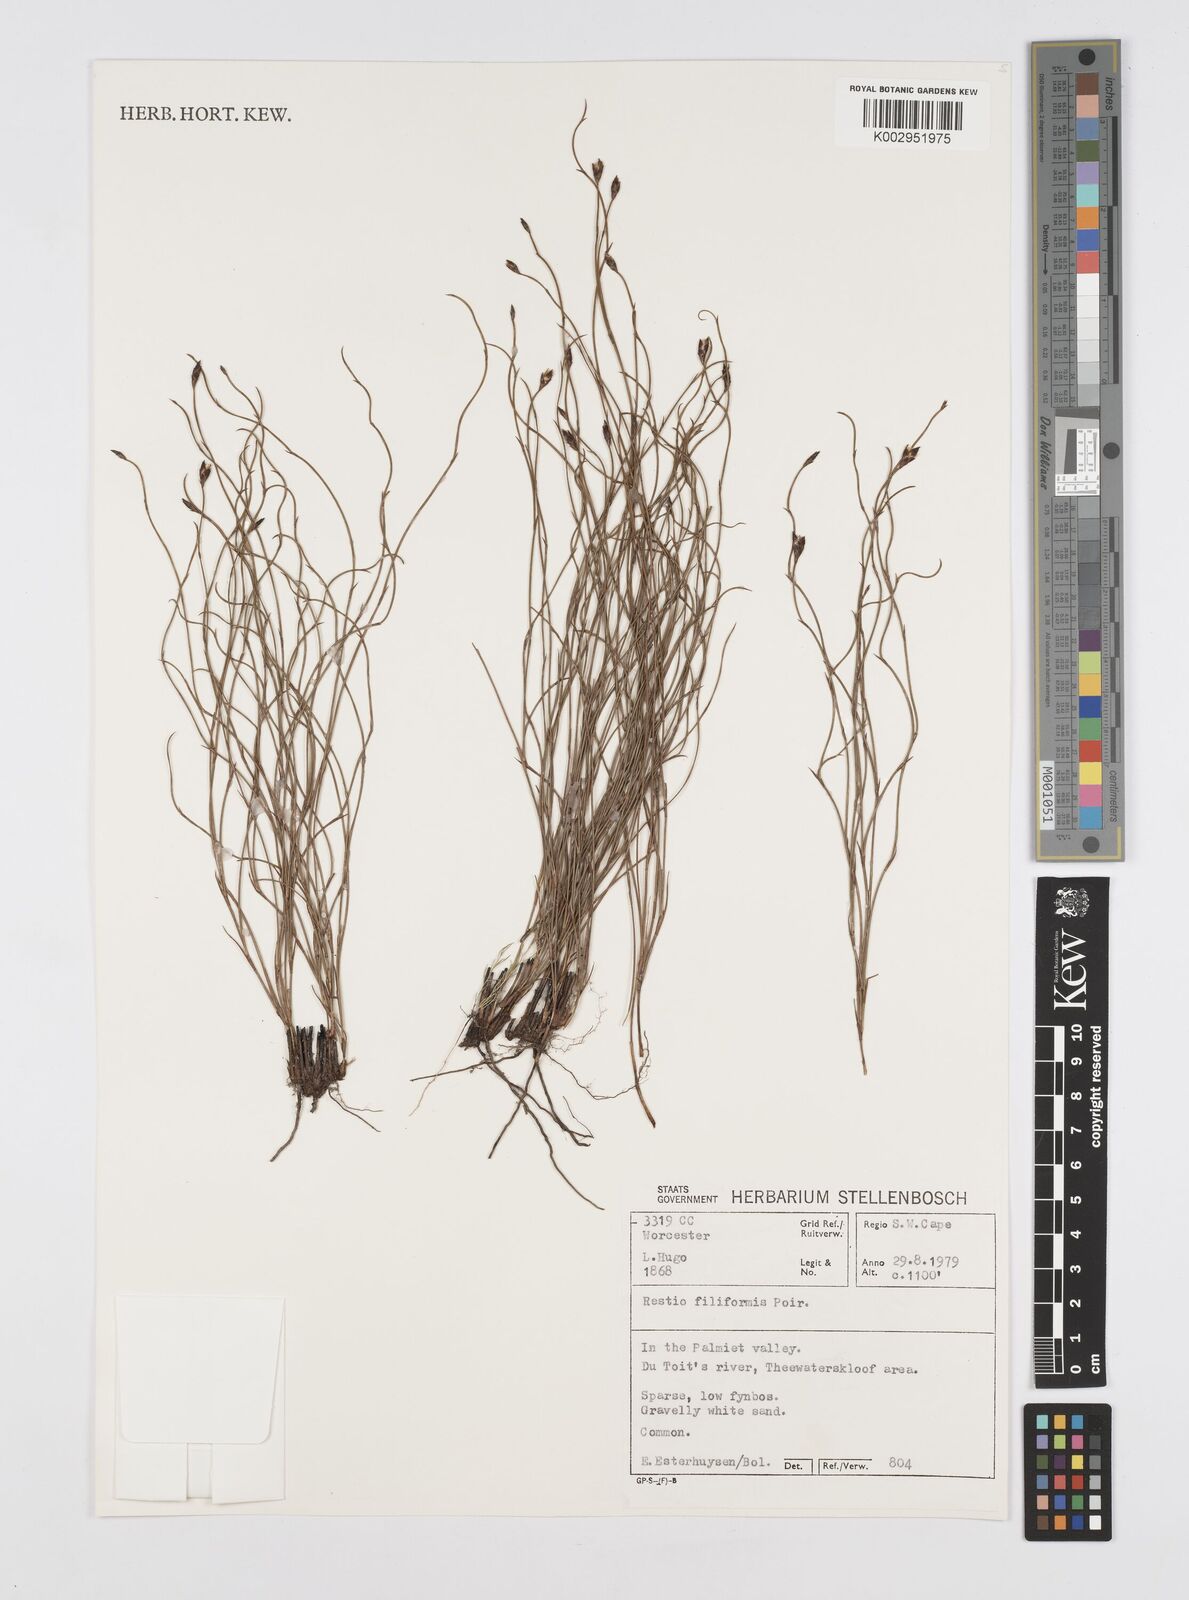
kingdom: Plantae
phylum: Tracheophyta
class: Liliopsida
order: Poales
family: Restionaceae
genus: Restio
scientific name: Restio filiformis
